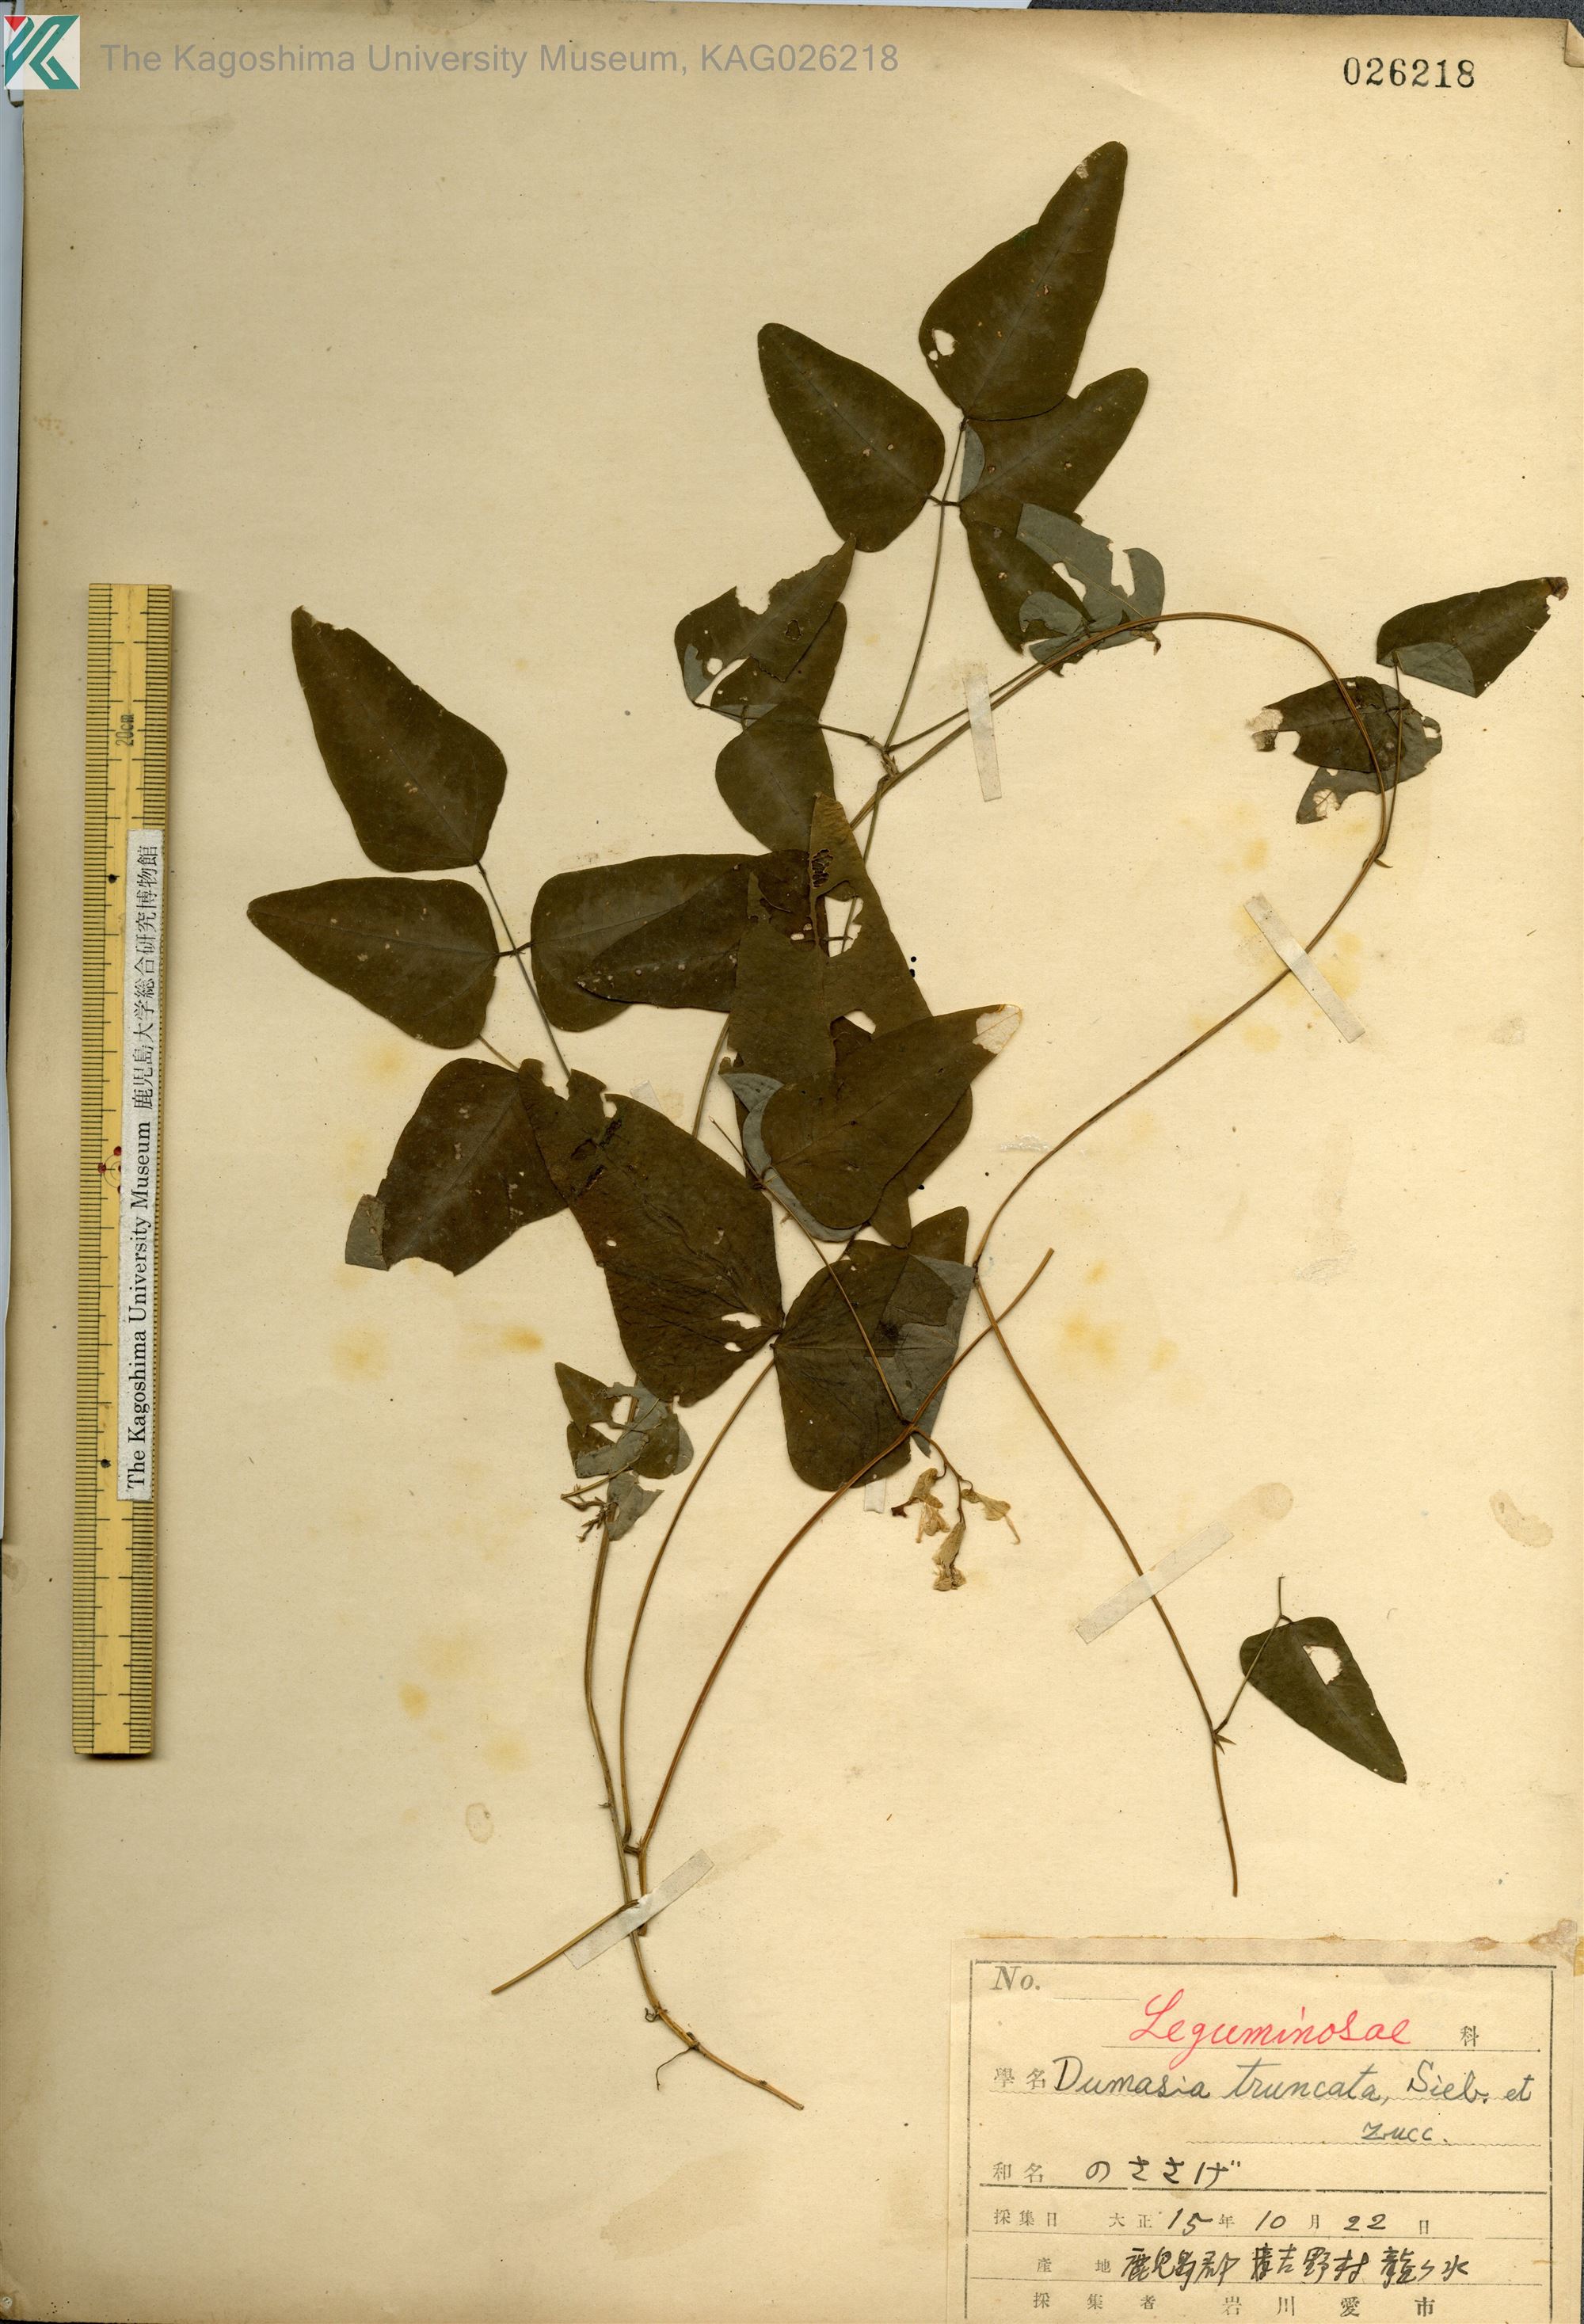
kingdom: Plantae
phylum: Tracheophyta
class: Magnoliopsida
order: Fabales
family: Fabaceae
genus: Dumasia
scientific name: Dumasia truncata
